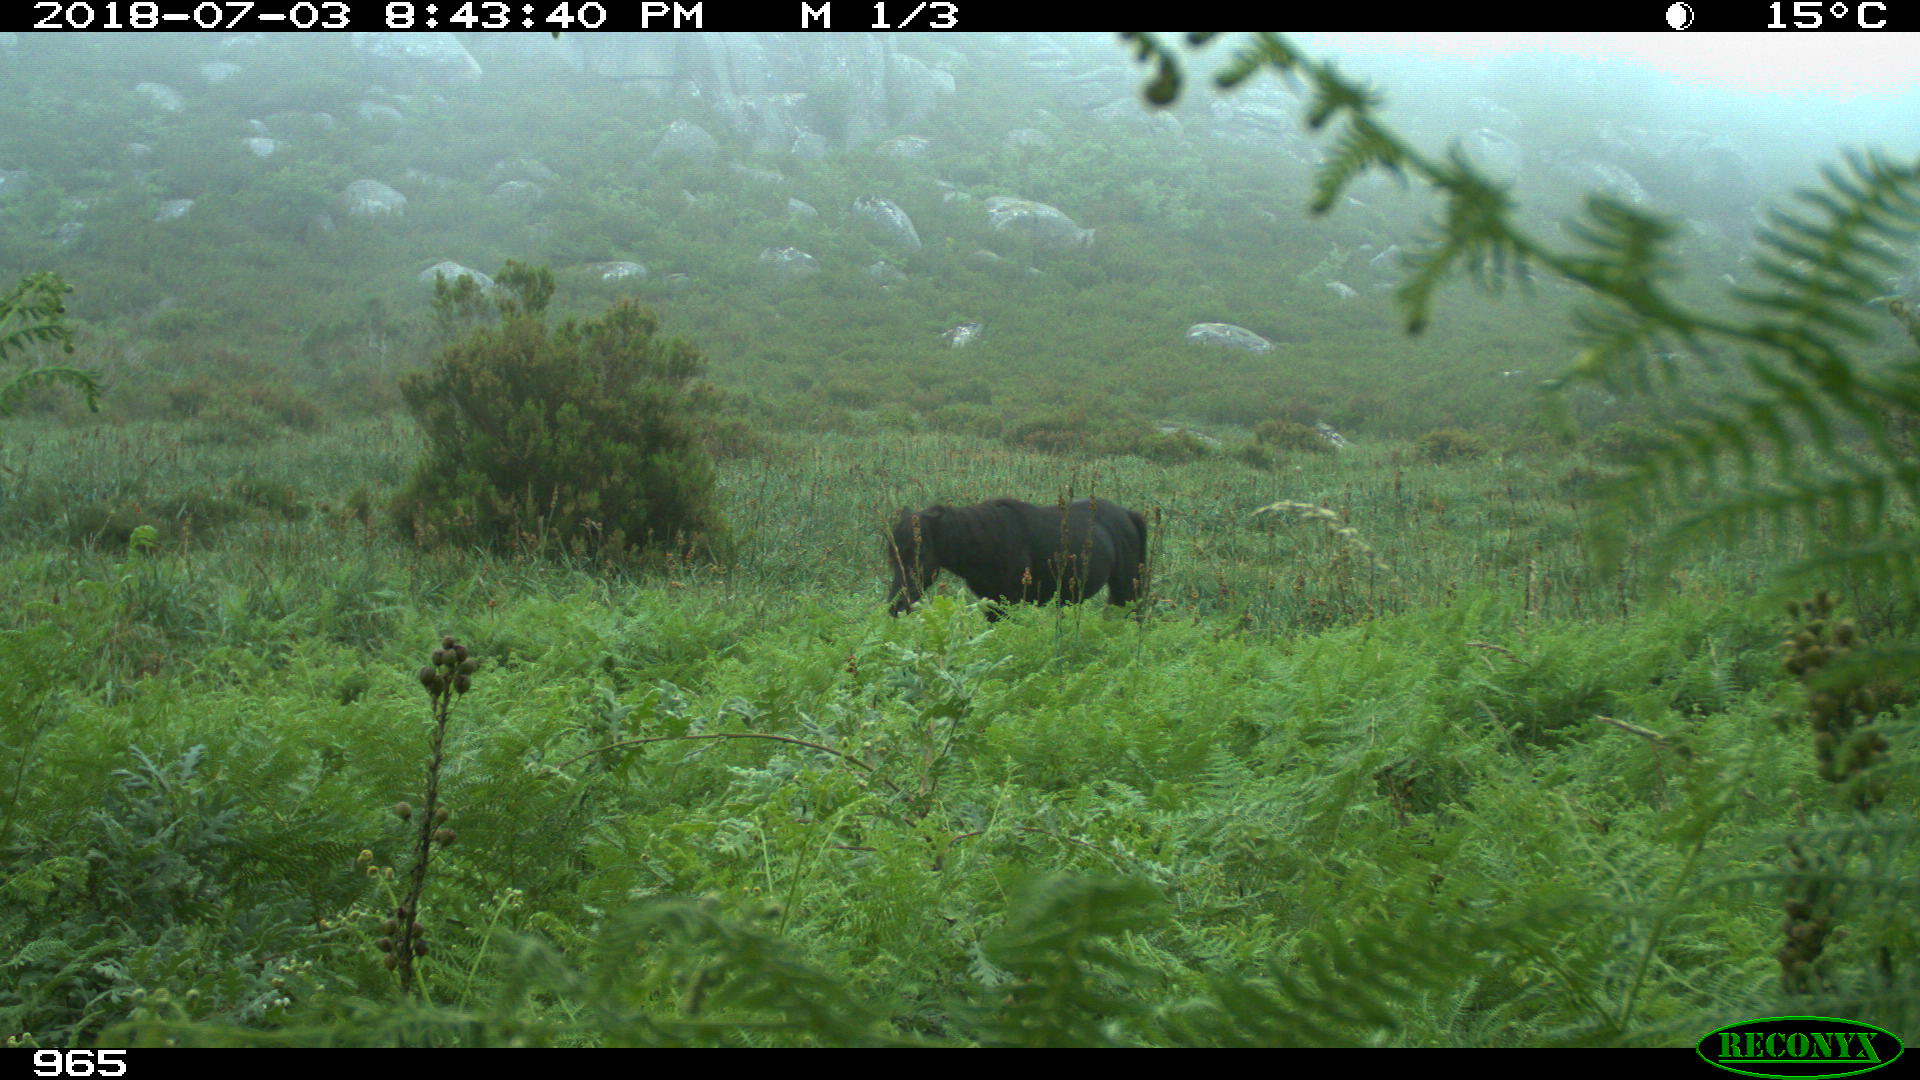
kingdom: Animalia
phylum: Chordata
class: Mammalia
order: Perissodactyla
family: Equidae
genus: Equus
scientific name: Equus caballus
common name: Horse
